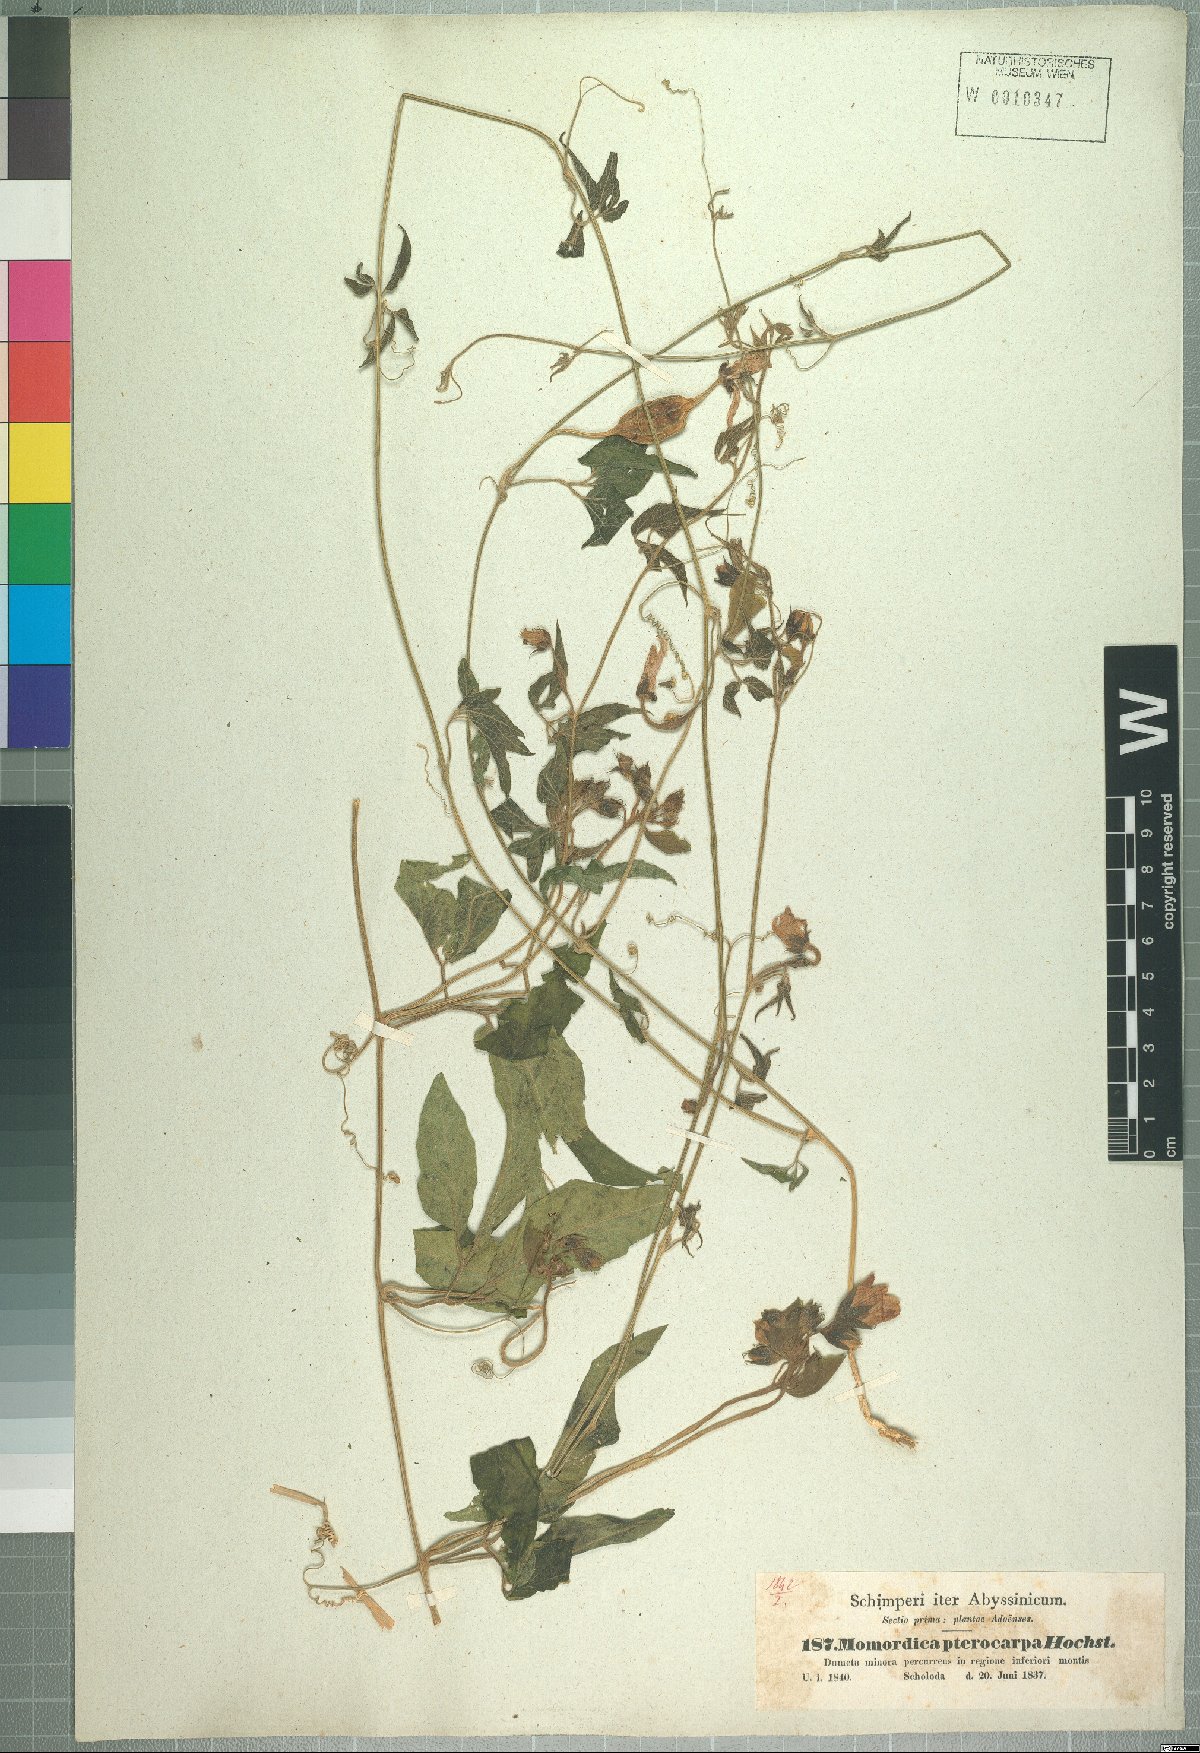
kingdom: Plantae
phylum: Tracheophyta
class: Magnoliopsida
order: Cucurbitales
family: Cucurbitaceae
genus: Momordica
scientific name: Momordica pterocarpa
